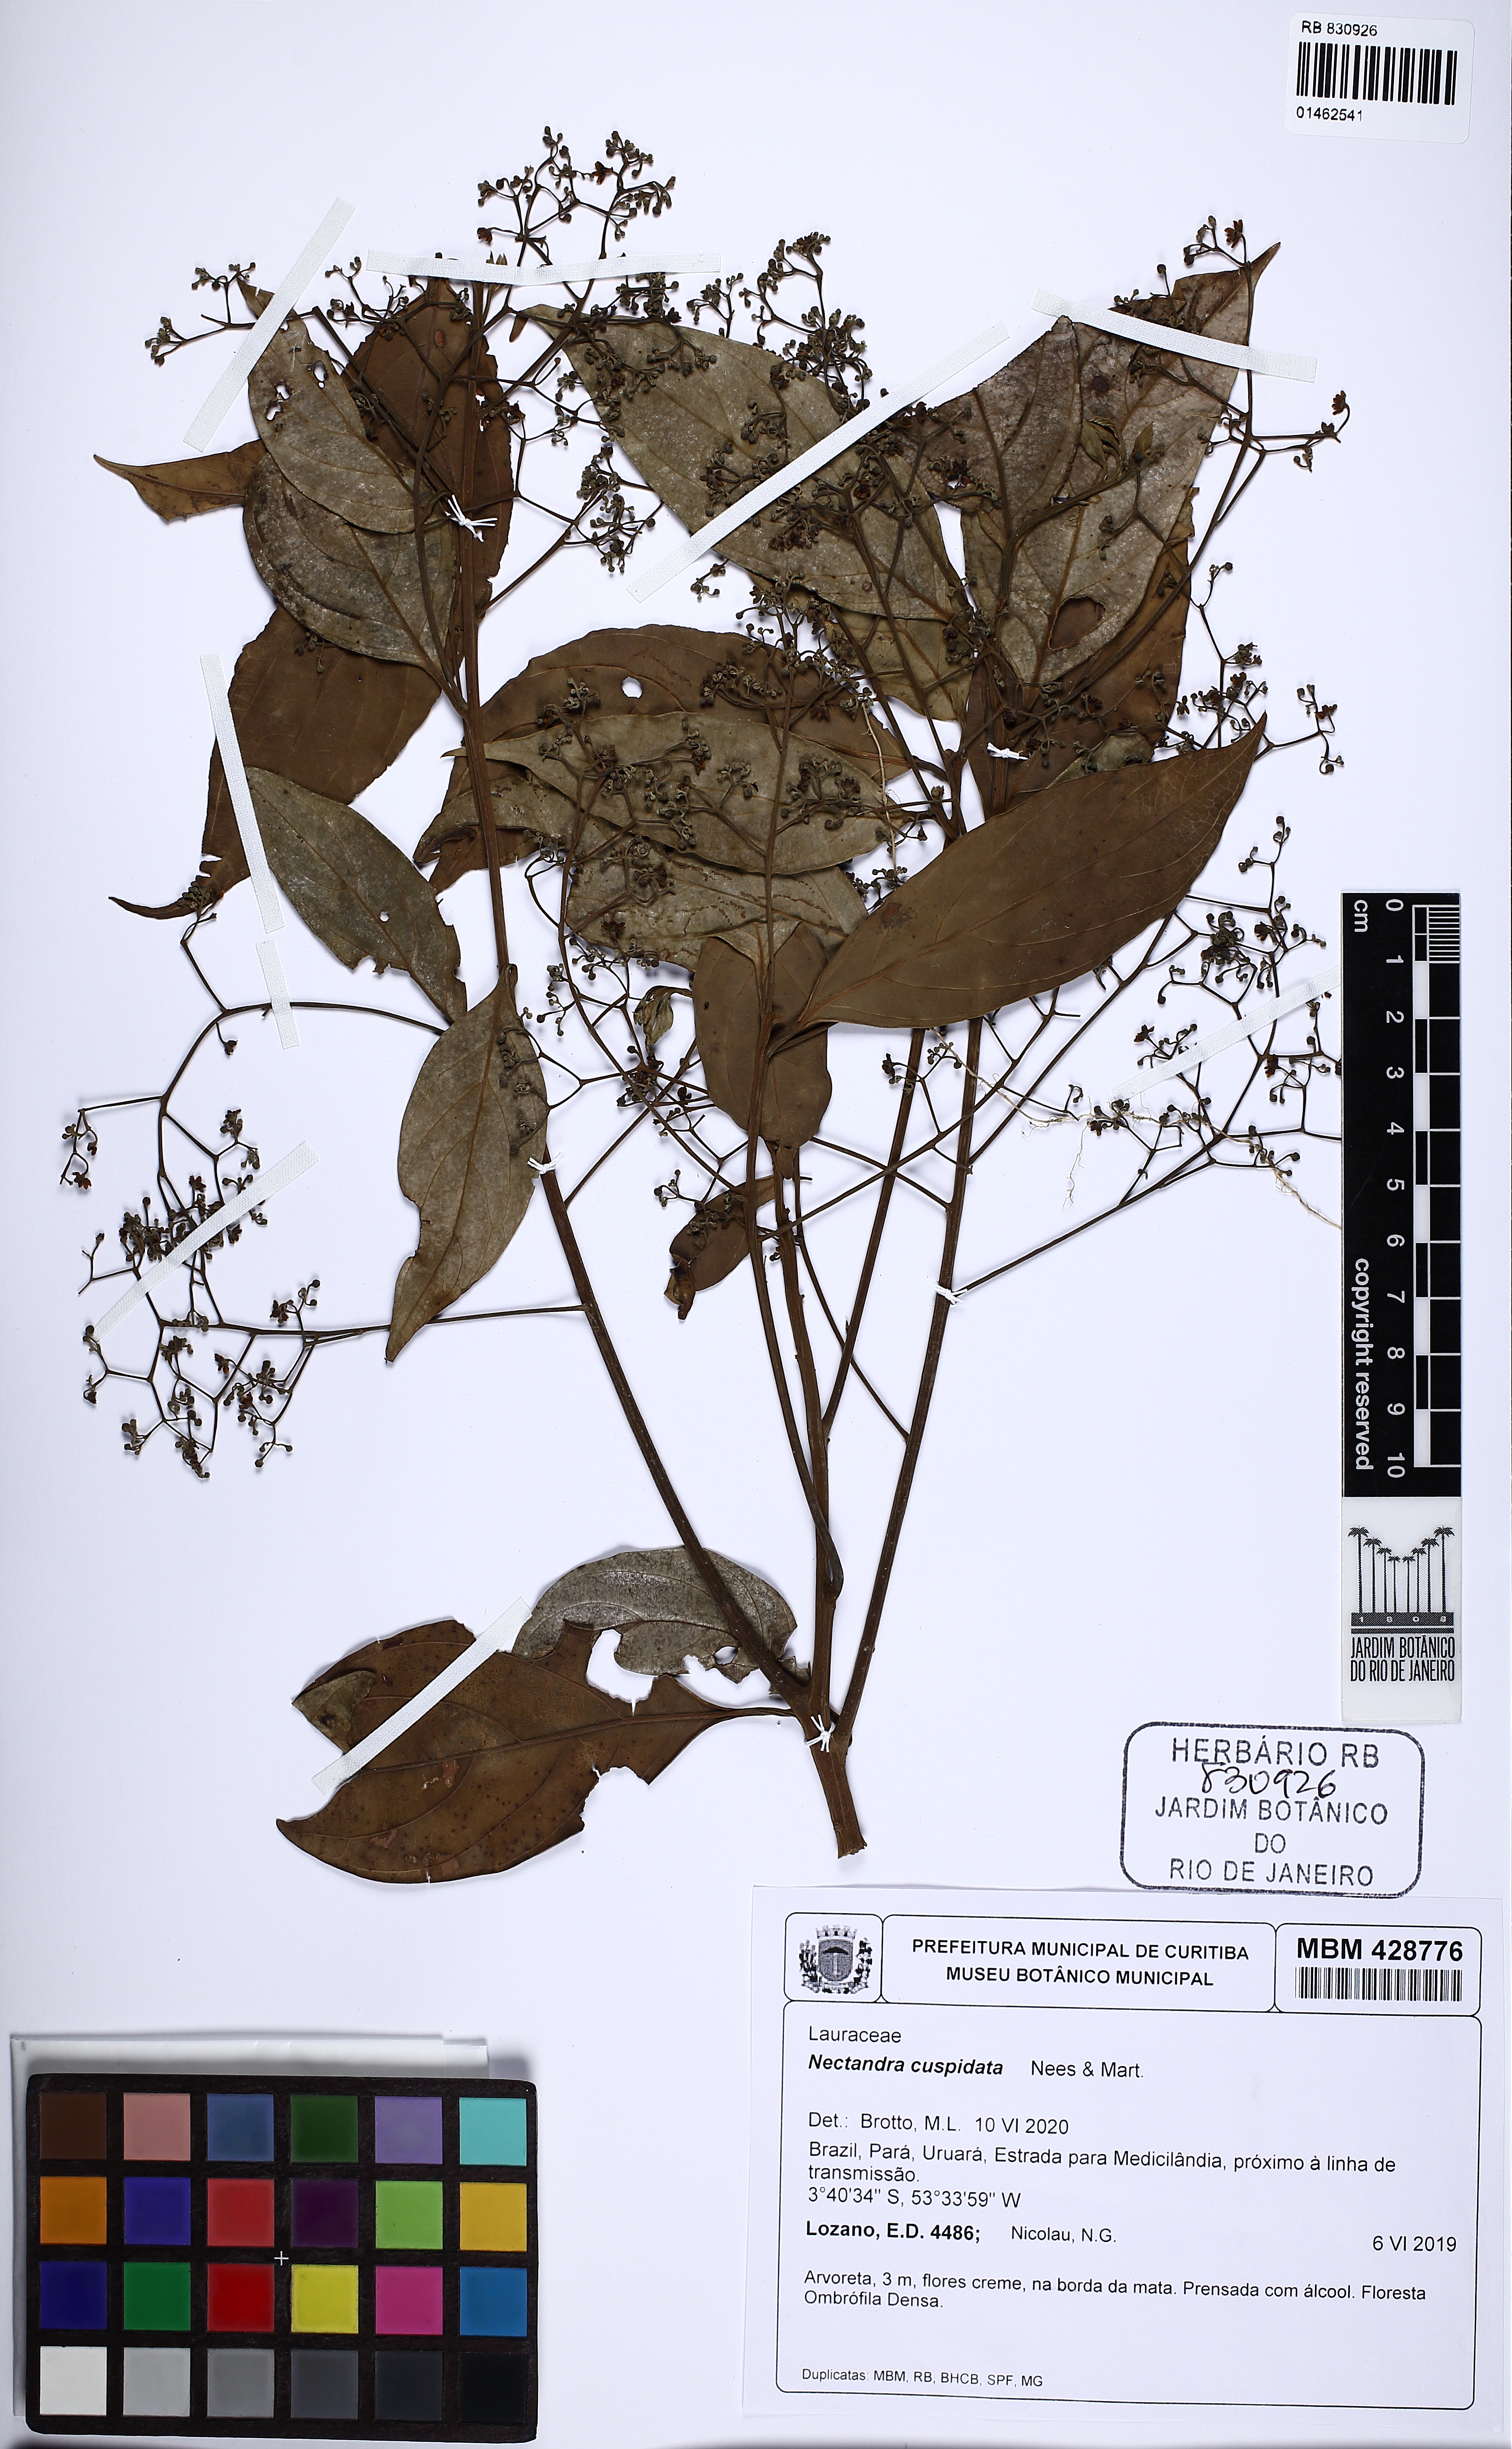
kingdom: Plantae
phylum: Tracheophyta
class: Magnoliopsida
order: Laurales
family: Lauraceae
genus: Nectandra
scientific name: Nectandra cuspidata
